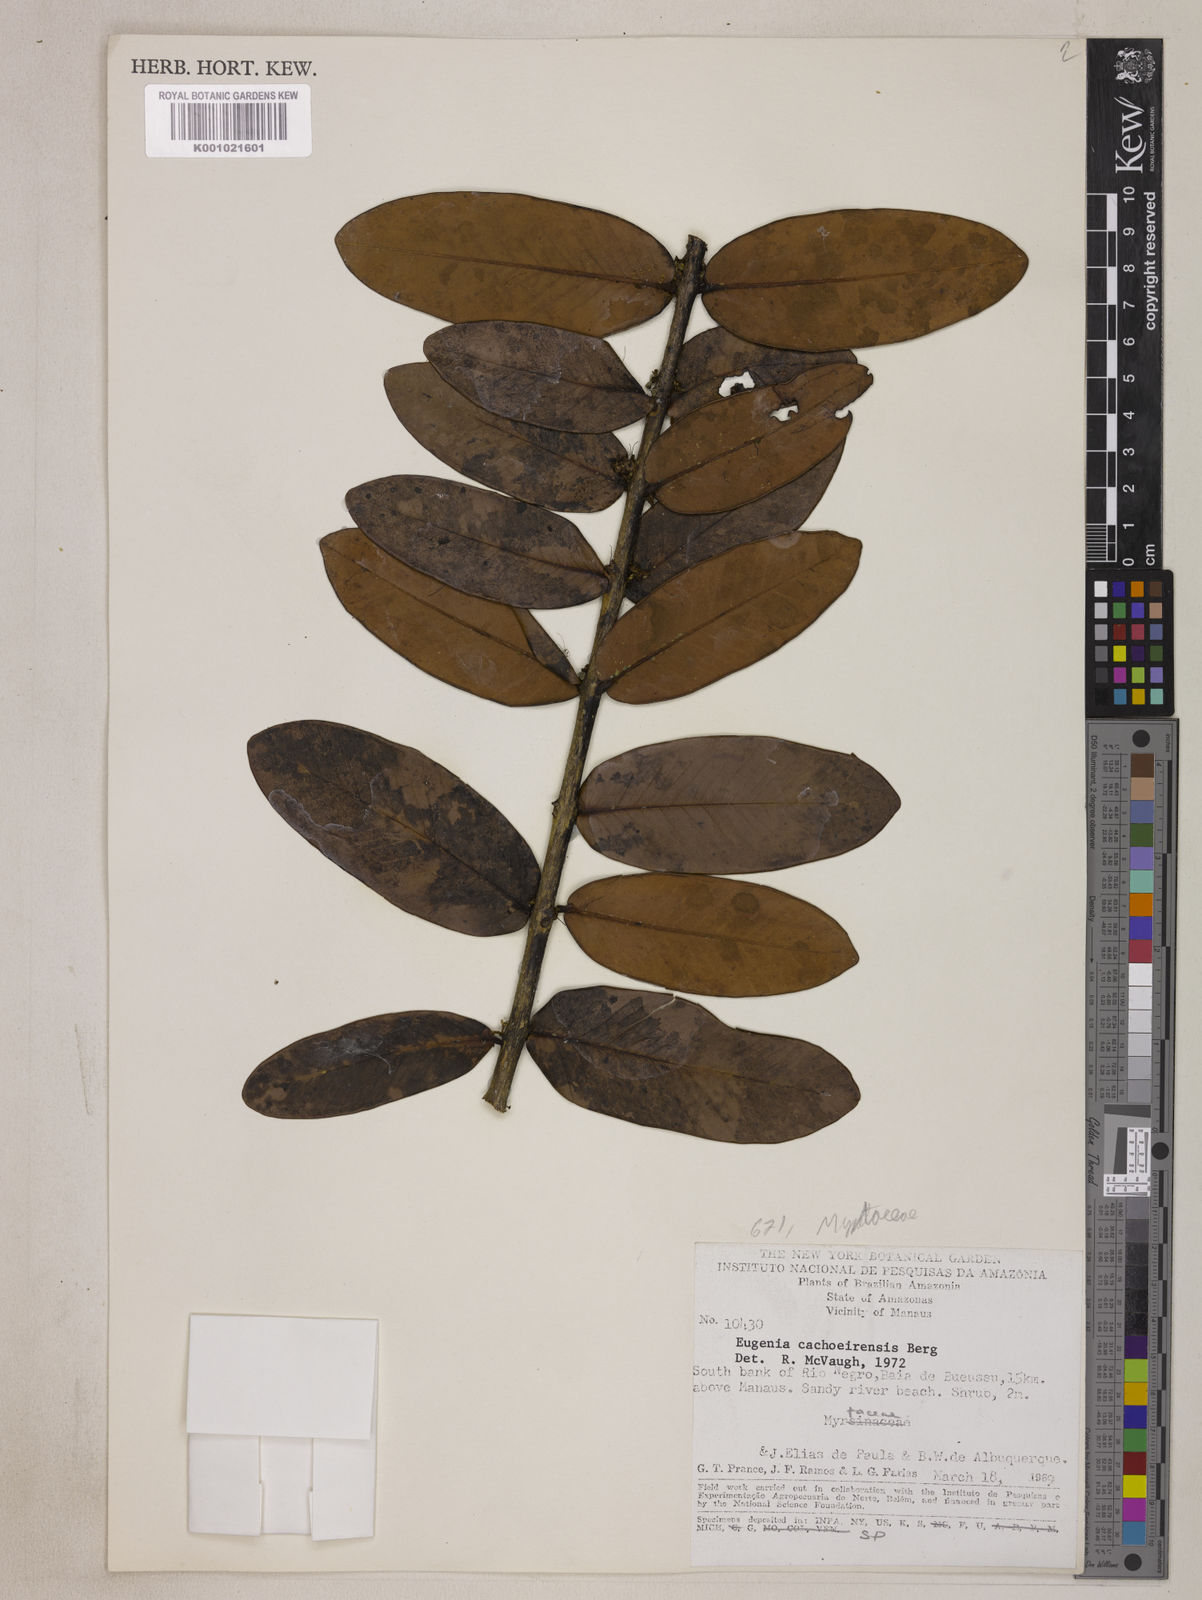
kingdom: Plantae
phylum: Tracheophyta
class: Magnoliopsida
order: Myrtales
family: Myrtaceae
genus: Eugenia
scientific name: Eugenia cachoeirensis
